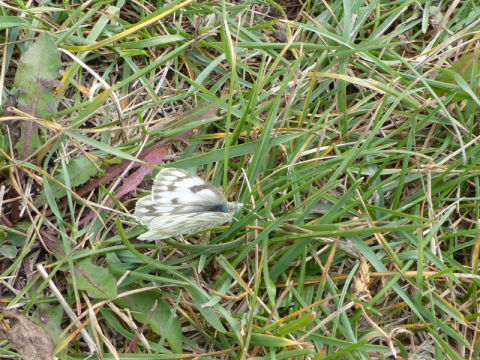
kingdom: Animalia
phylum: Arthropoda
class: Insecta
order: Lepidoptera
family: Pieridae
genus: Pontia
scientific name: Pontia occidentalis
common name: Western White
